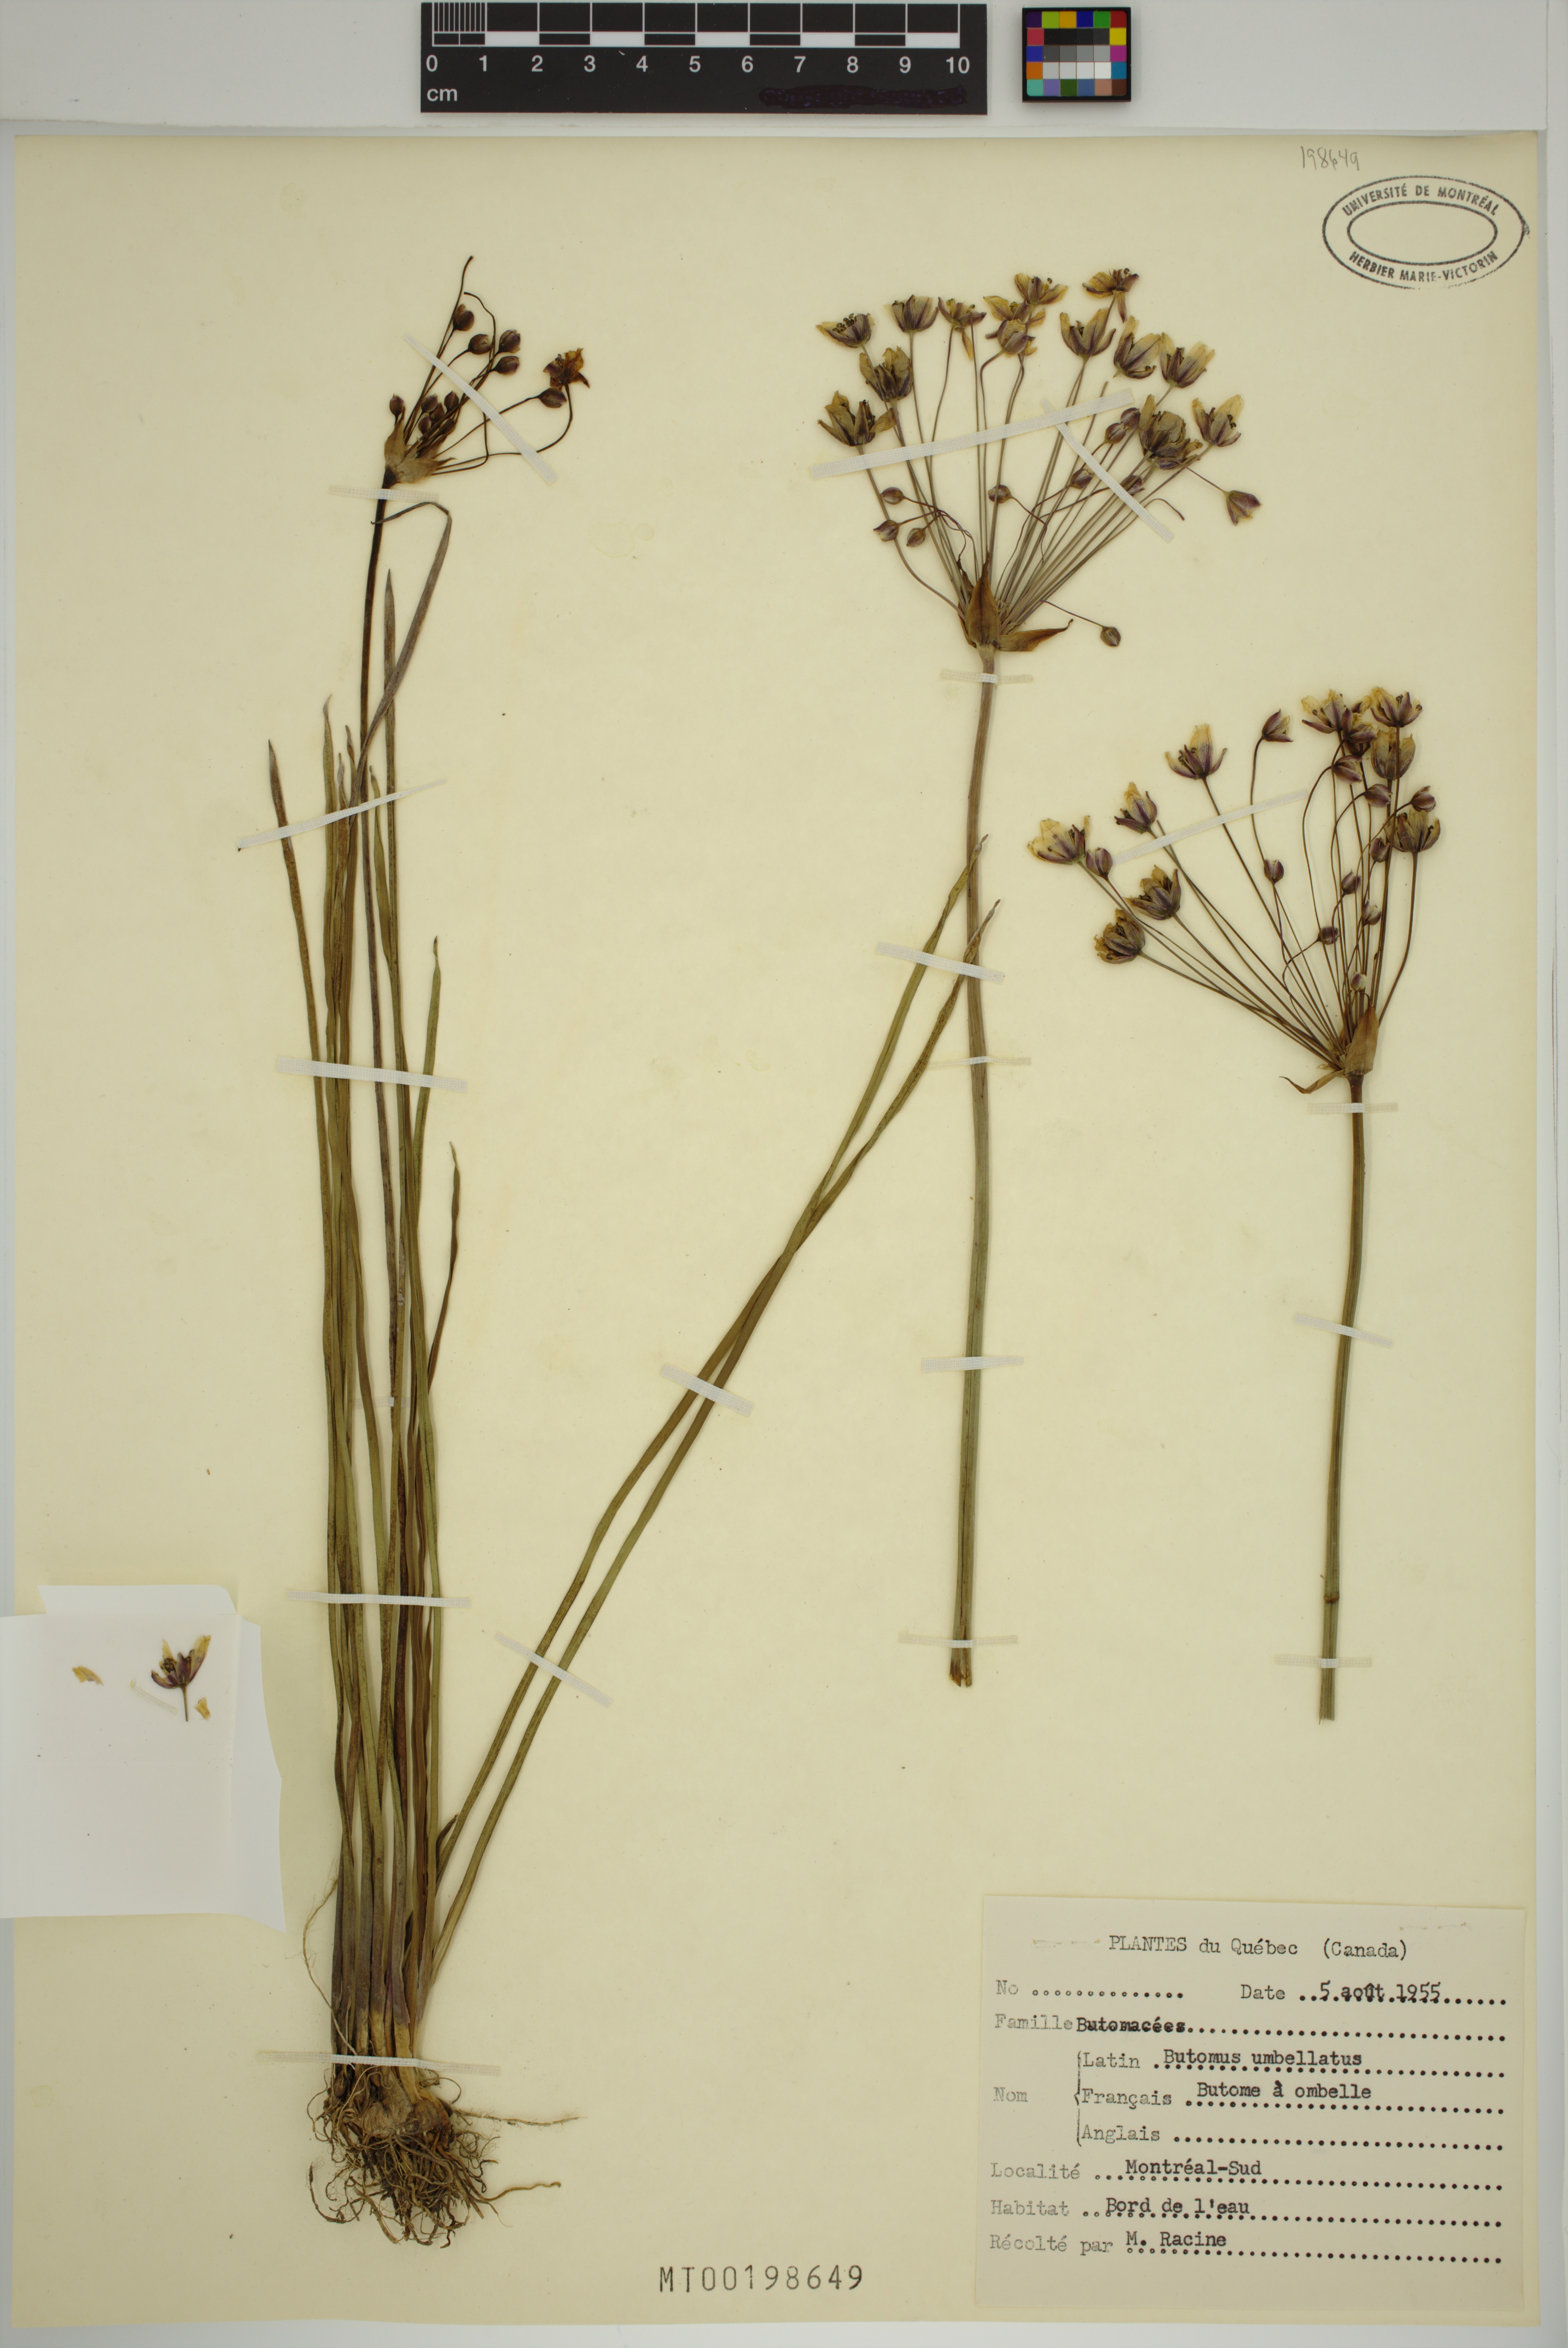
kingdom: Plantae
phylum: Tracheophyta
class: Liliopsida
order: Alismatales
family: Butomaceae
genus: Butomus
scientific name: Butomus umbellatus
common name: Flowering-rush
